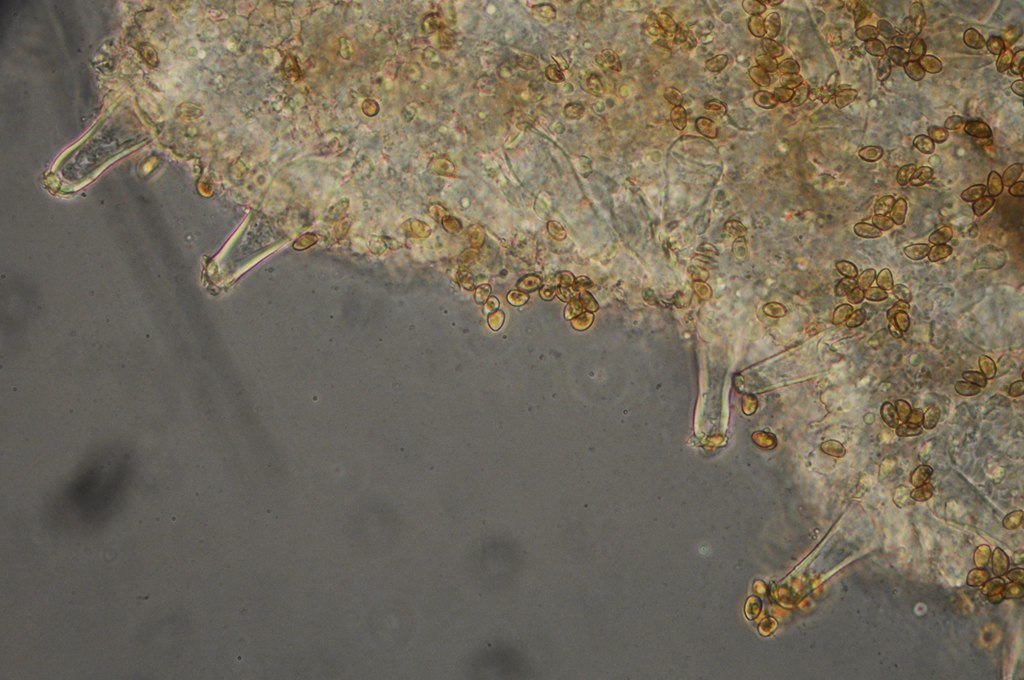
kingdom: Fungi
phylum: Basidiomycota
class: Agaricomycetes
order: Agaricales
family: Inocybaceae
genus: Inocybe
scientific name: Inocybe minimispora
